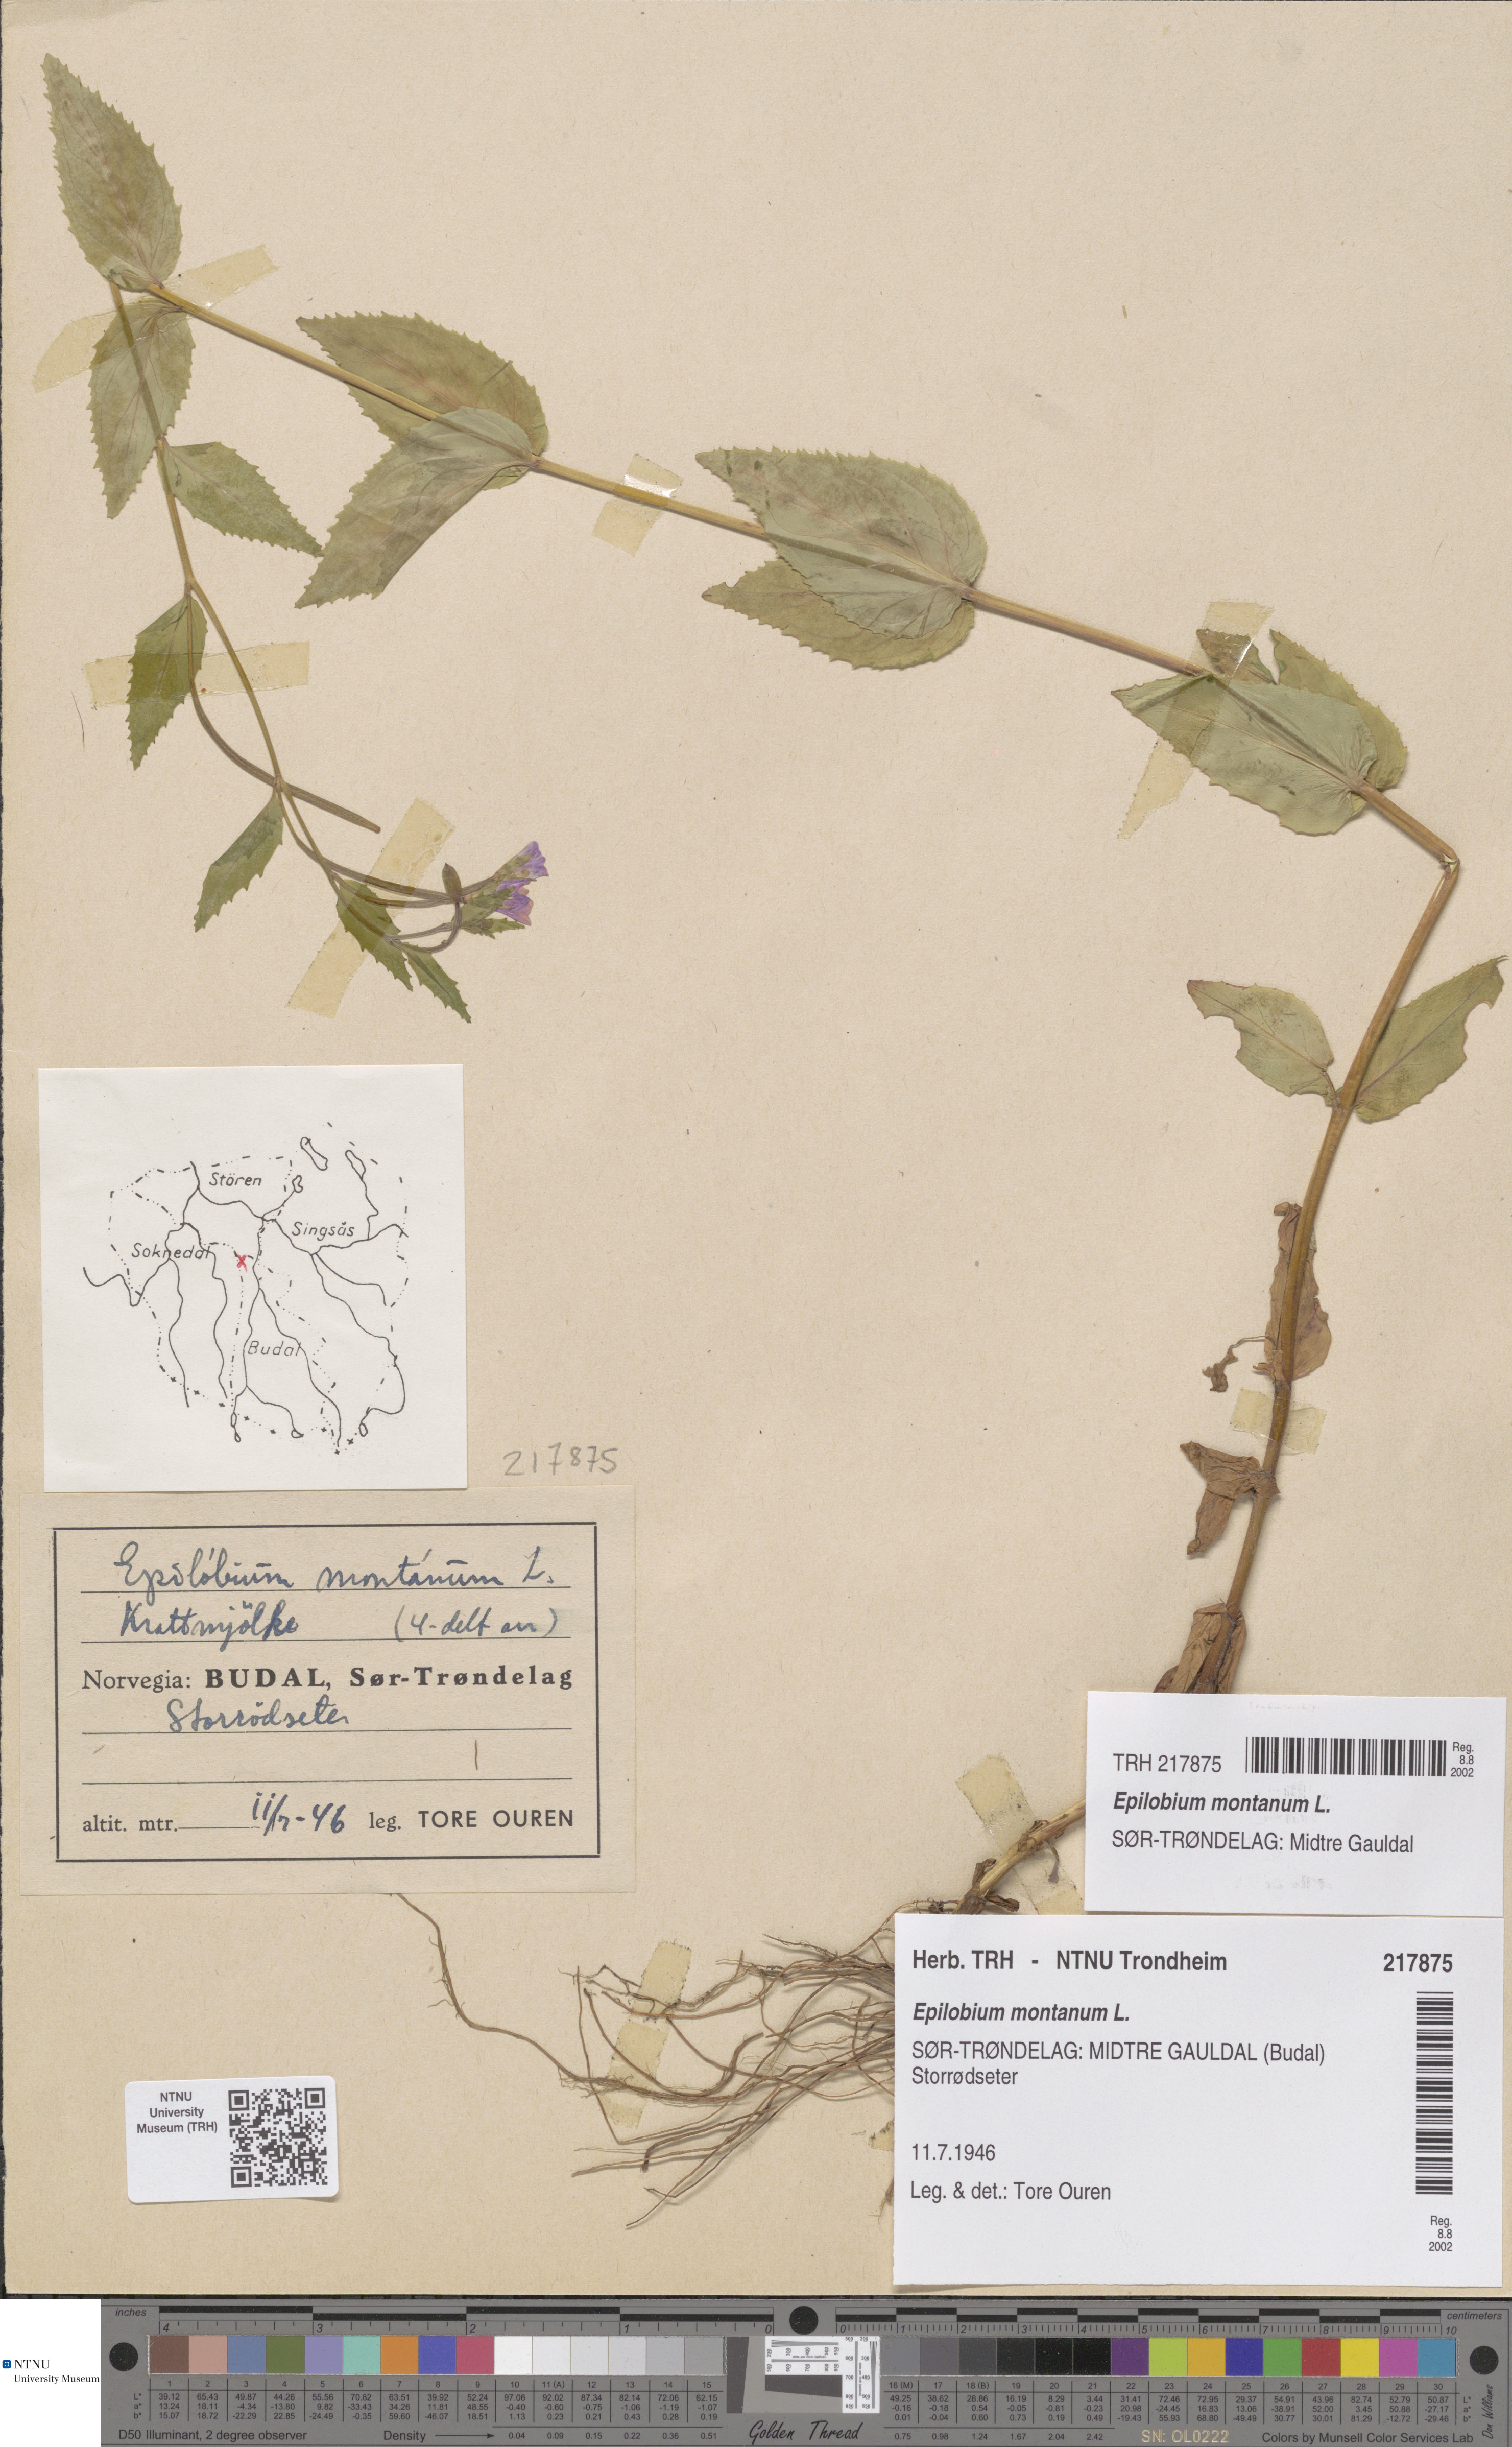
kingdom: Plantae
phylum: Tracheophyta
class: Magnoliopsida
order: Myrtales
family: Onagraceae
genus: Epilobium
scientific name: Epilobium montanum
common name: Broad-leaved willowherb
